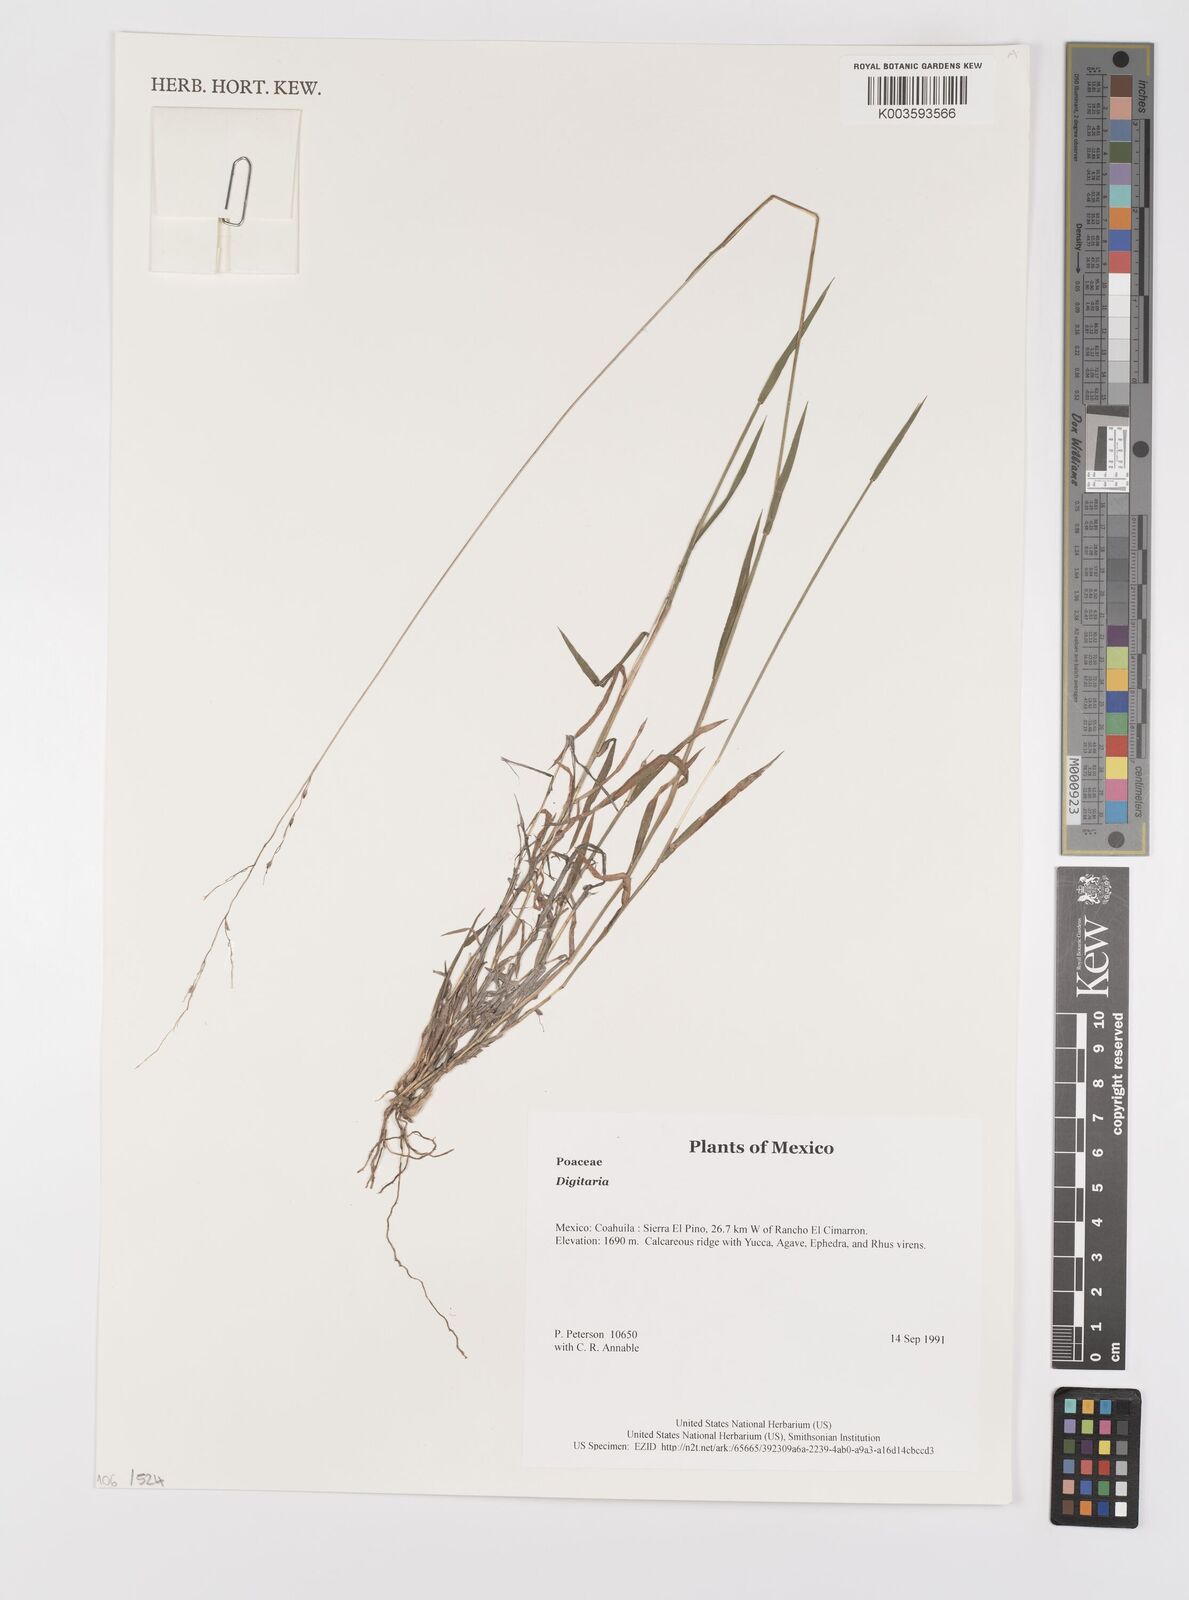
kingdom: Plantae
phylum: Tracheophyta
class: Liliopsida
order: Poales
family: Poaceae
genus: Digitaria
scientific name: Digitaria spec
